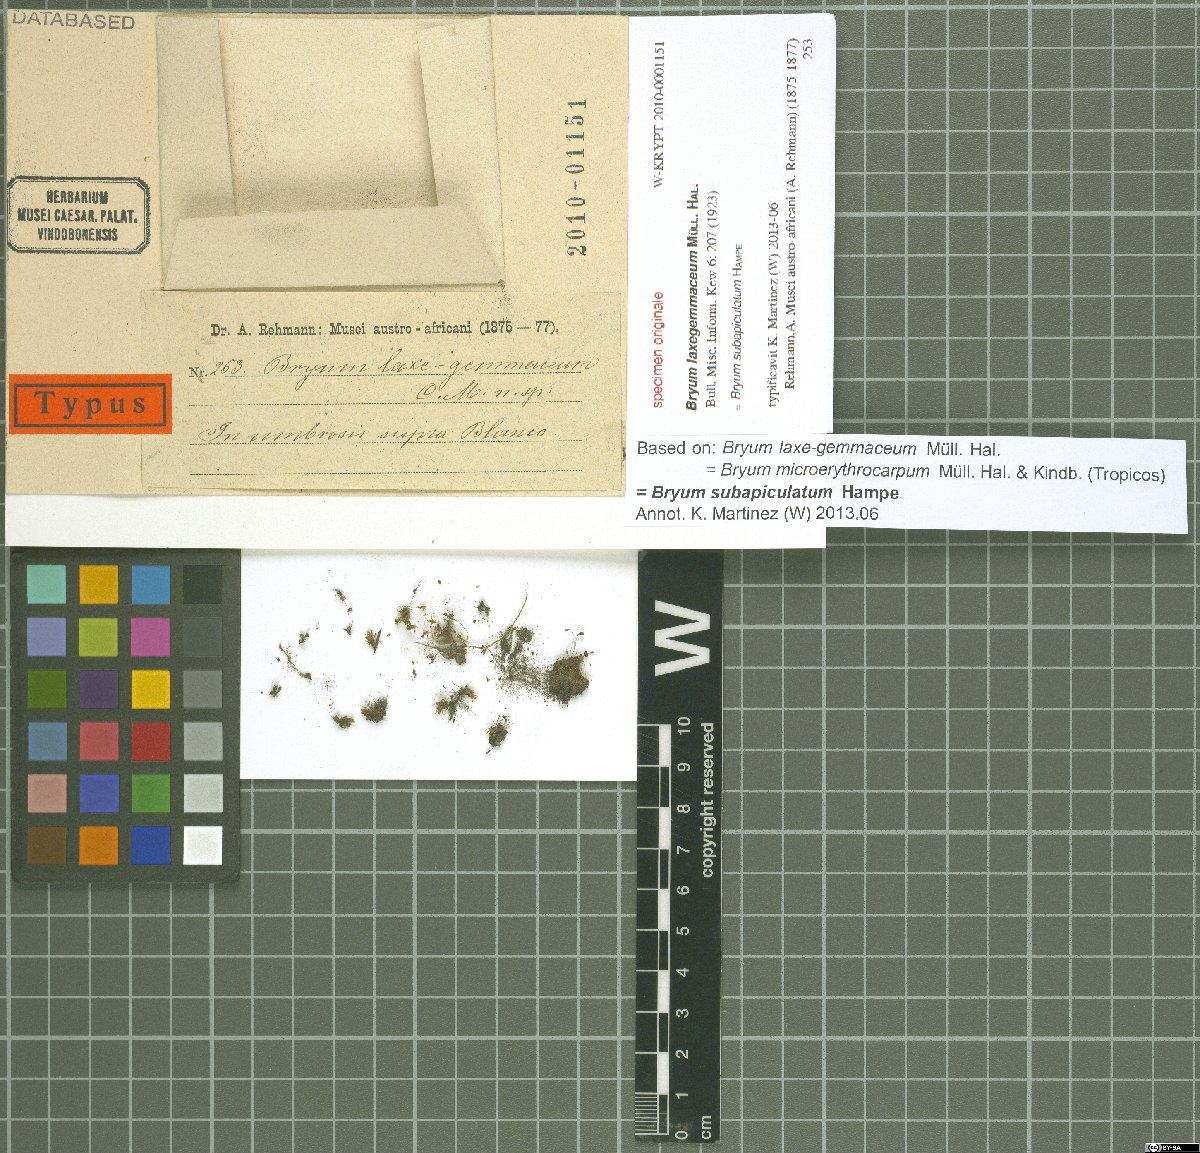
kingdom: Plantae
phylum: Bryophyta
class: Bryopsida
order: Funariales
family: Funariaceae
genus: Funaria
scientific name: Funaria hygrometrica
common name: Common cord moss
